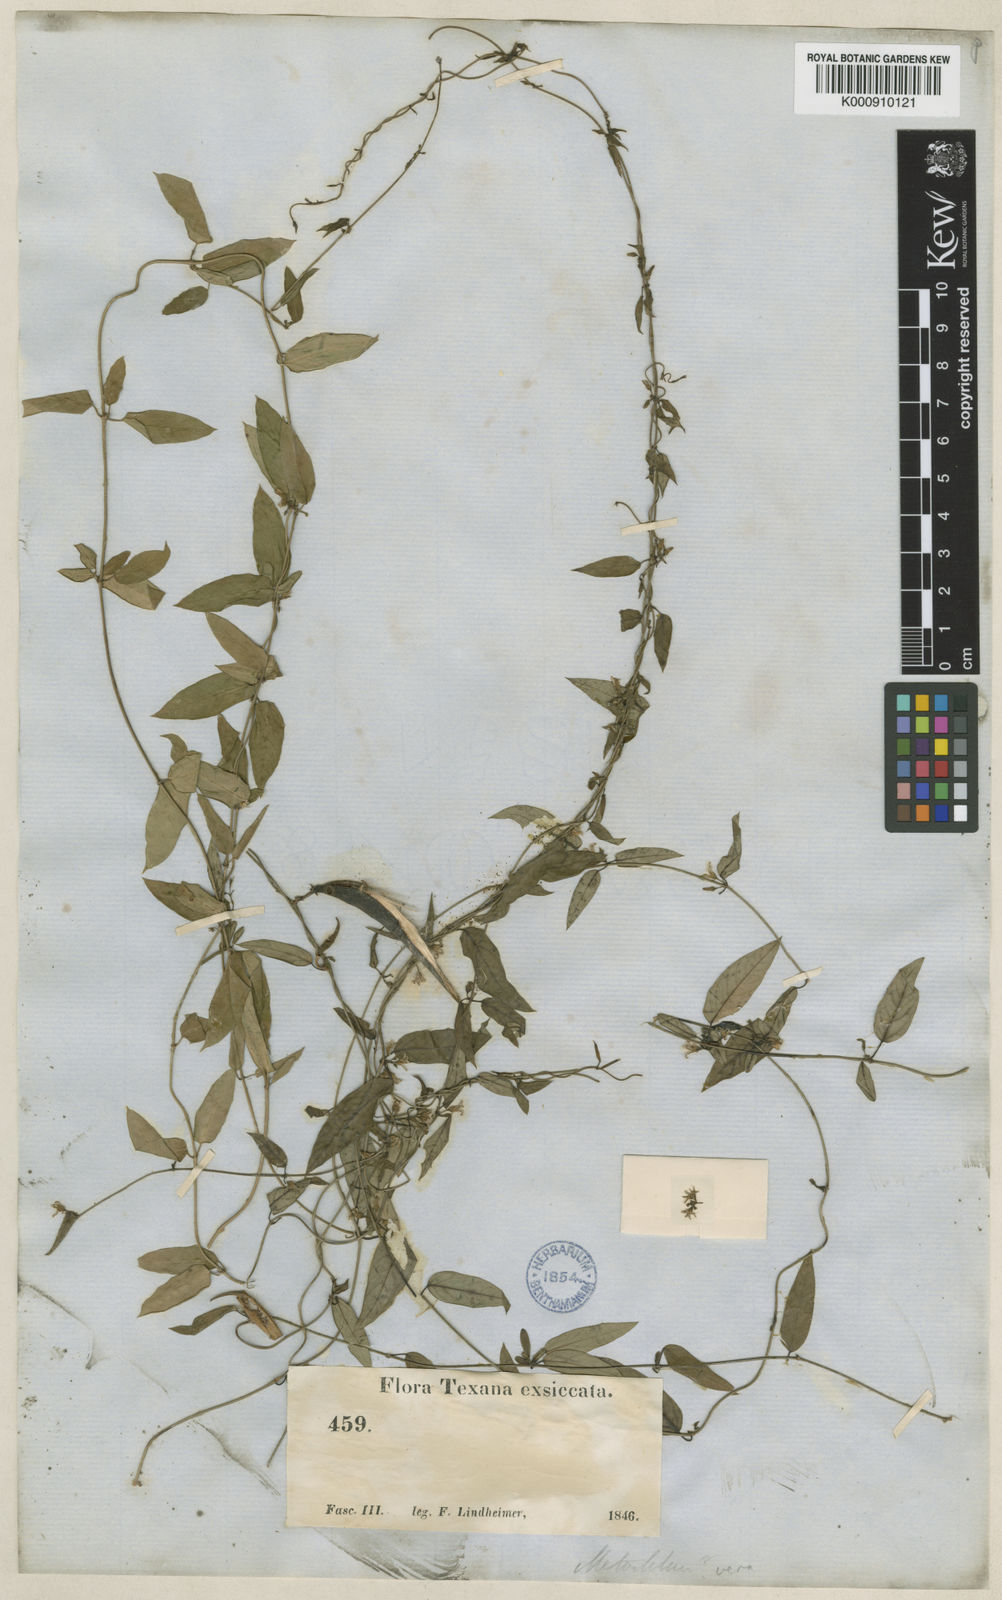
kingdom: Plantae
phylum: Tracheophyta
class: Magnoliopsida
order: Gentianales
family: Apocynaceae
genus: Metastelma
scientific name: Metastelma barbigerum
